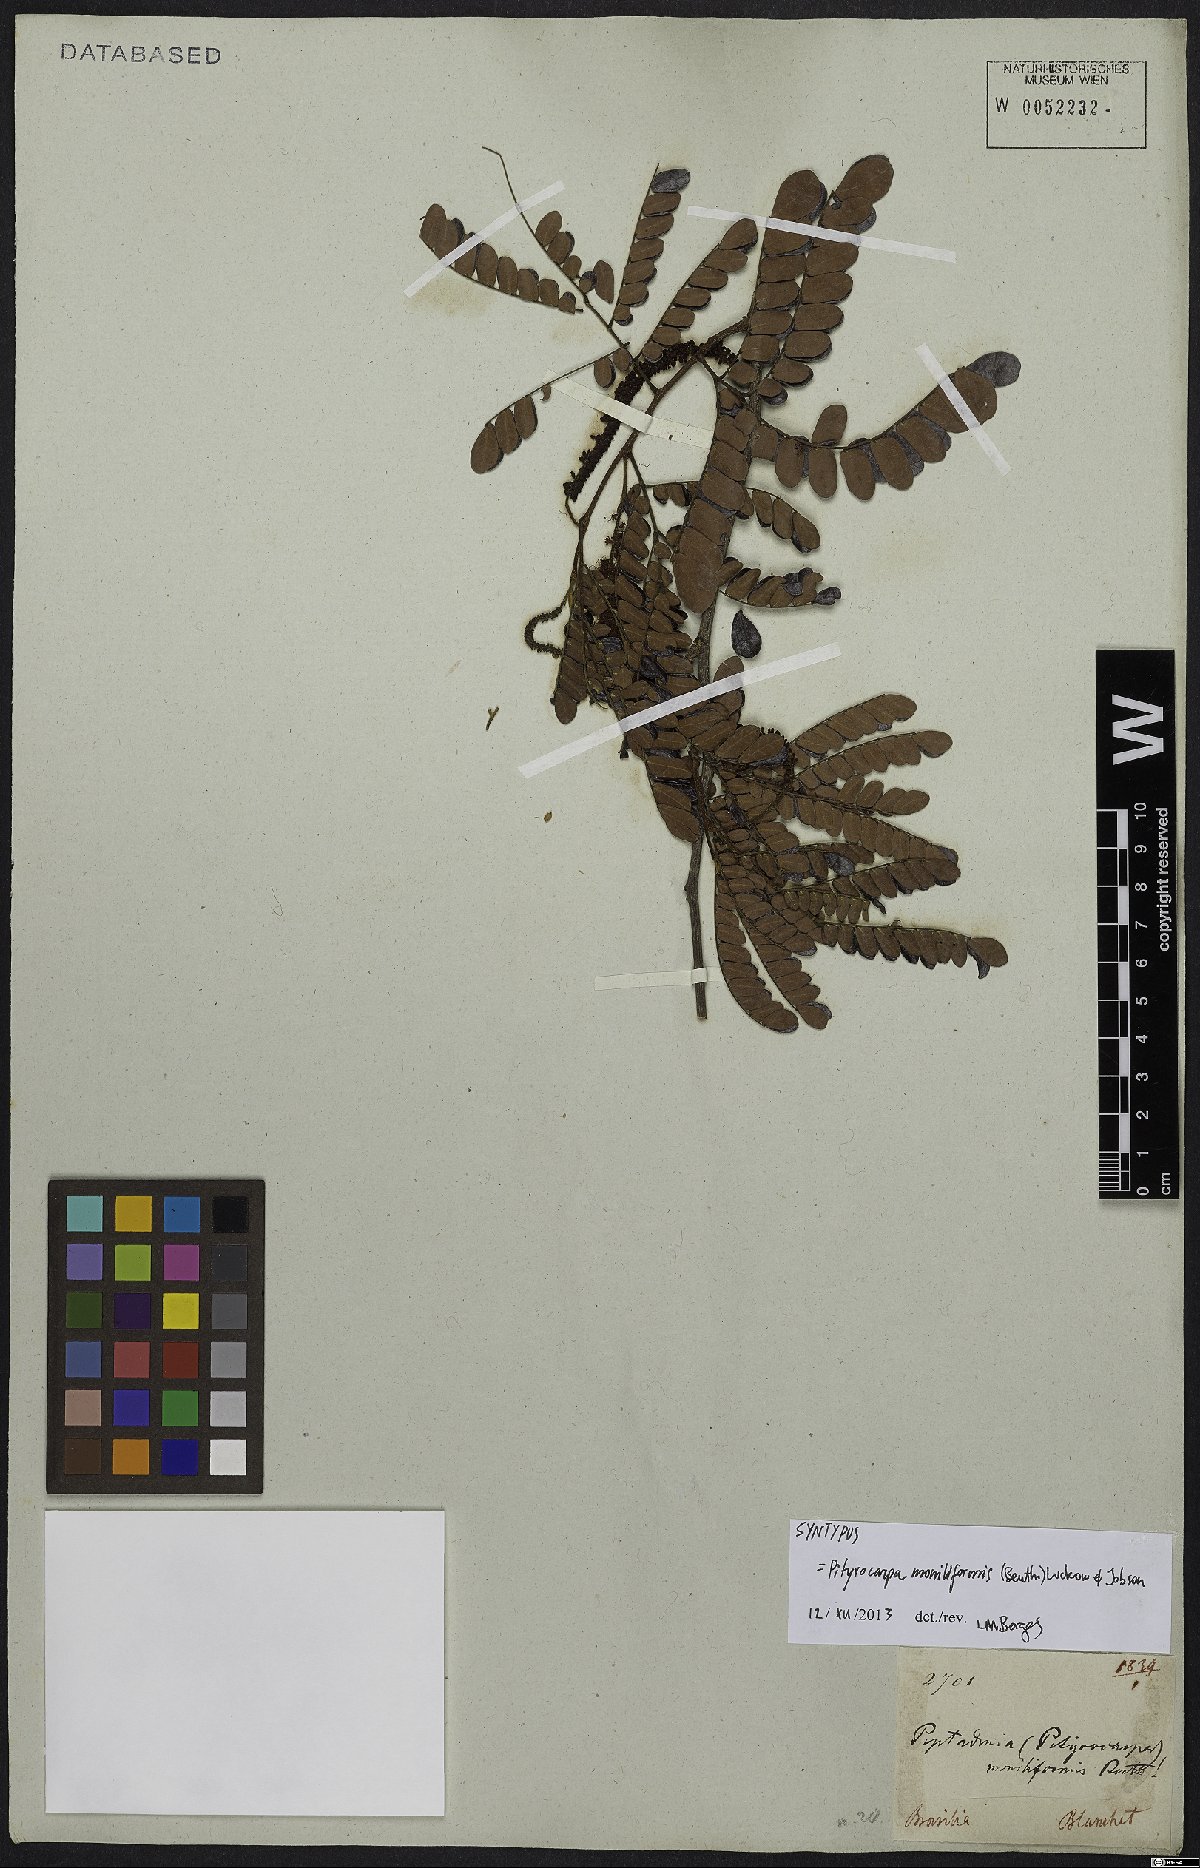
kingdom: Plantae
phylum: Tracheophyta
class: Magnoliopsida
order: Fabales
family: Fabaceae
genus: Pityrocarpa
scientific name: Pityrocarpa moniliformis
